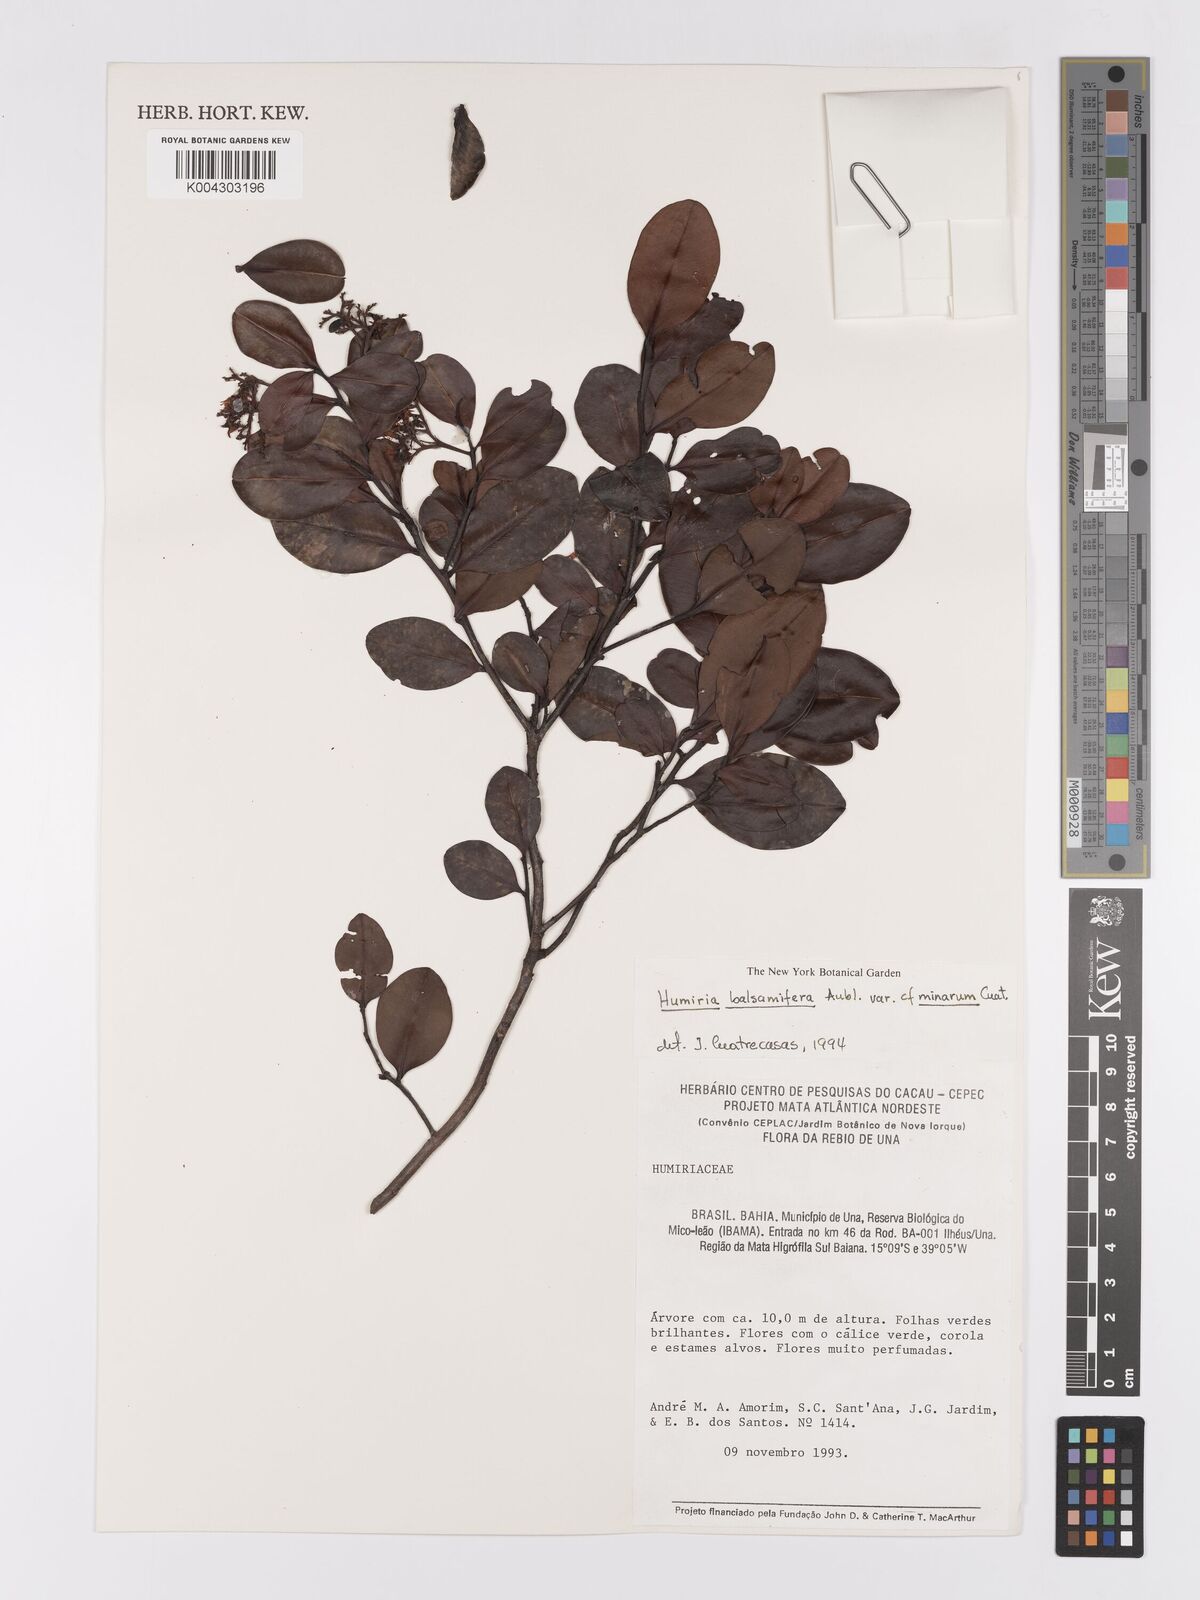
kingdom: Plantae
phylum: Tracheophyta
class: Magnoliopsida
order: Malpighiales
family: Humiriaceae
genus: Humiria
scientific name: Humiria parvifolia
